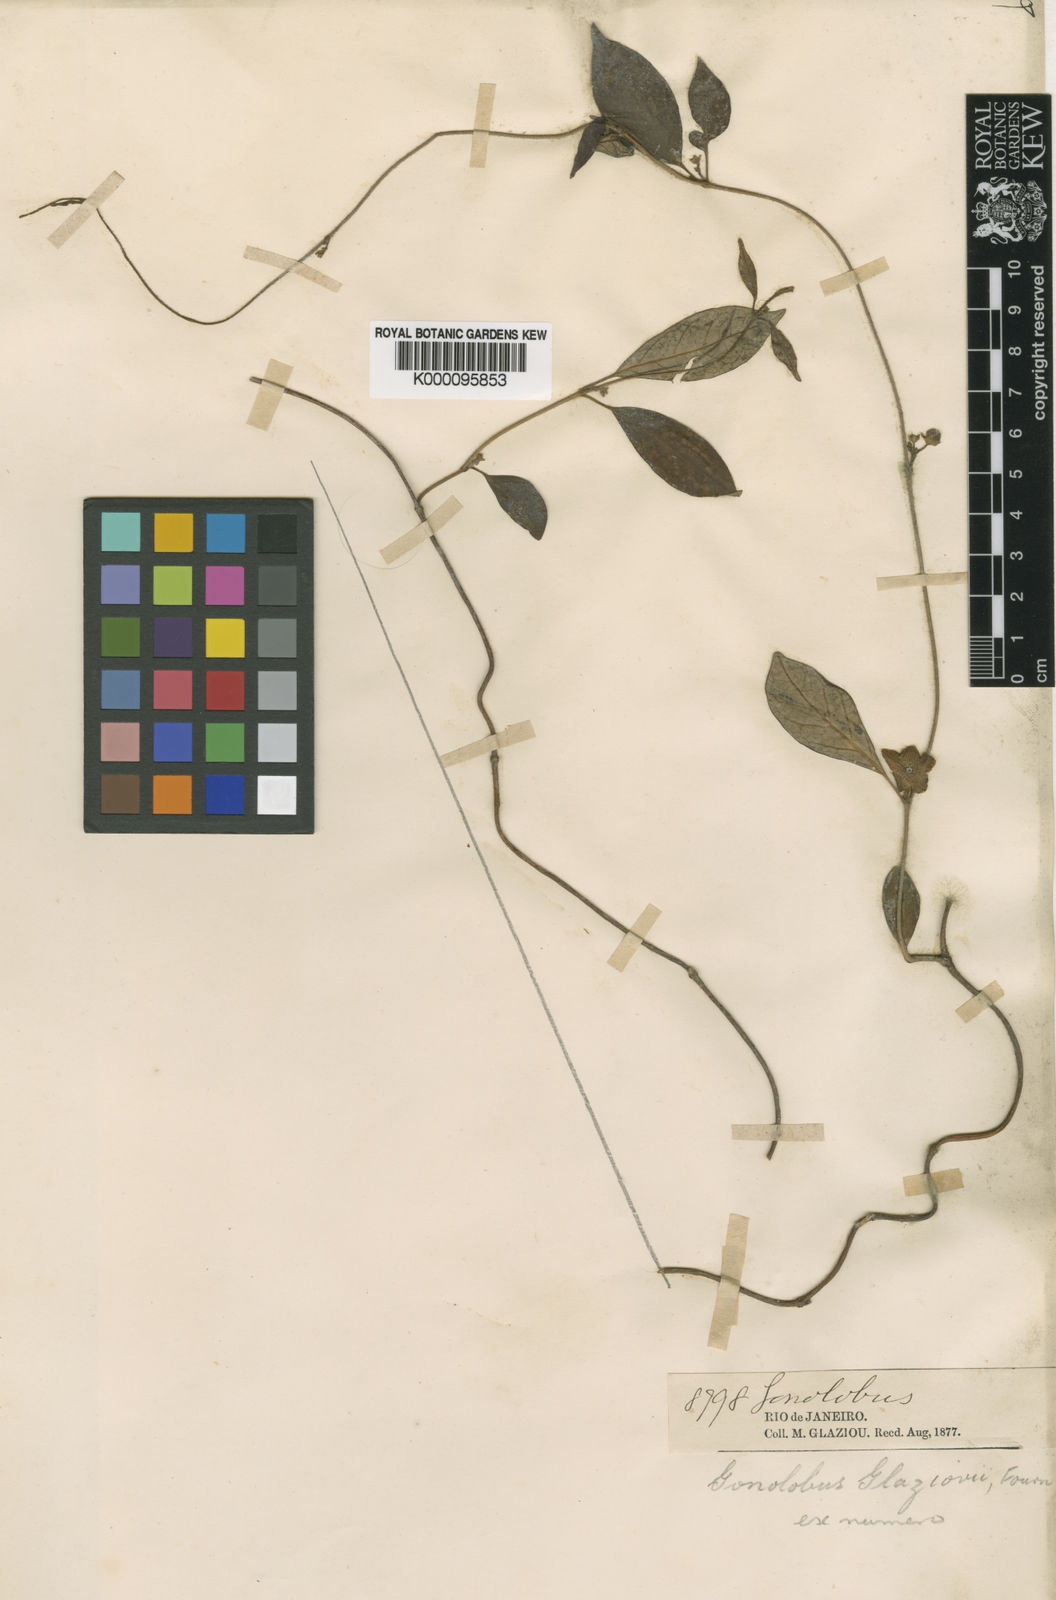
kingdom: Plantae
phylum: Tracheophyta
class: Magnoliopsida
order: Gentianales
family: Apocynaceae
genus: Matelea
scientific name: Matelea fournieri
